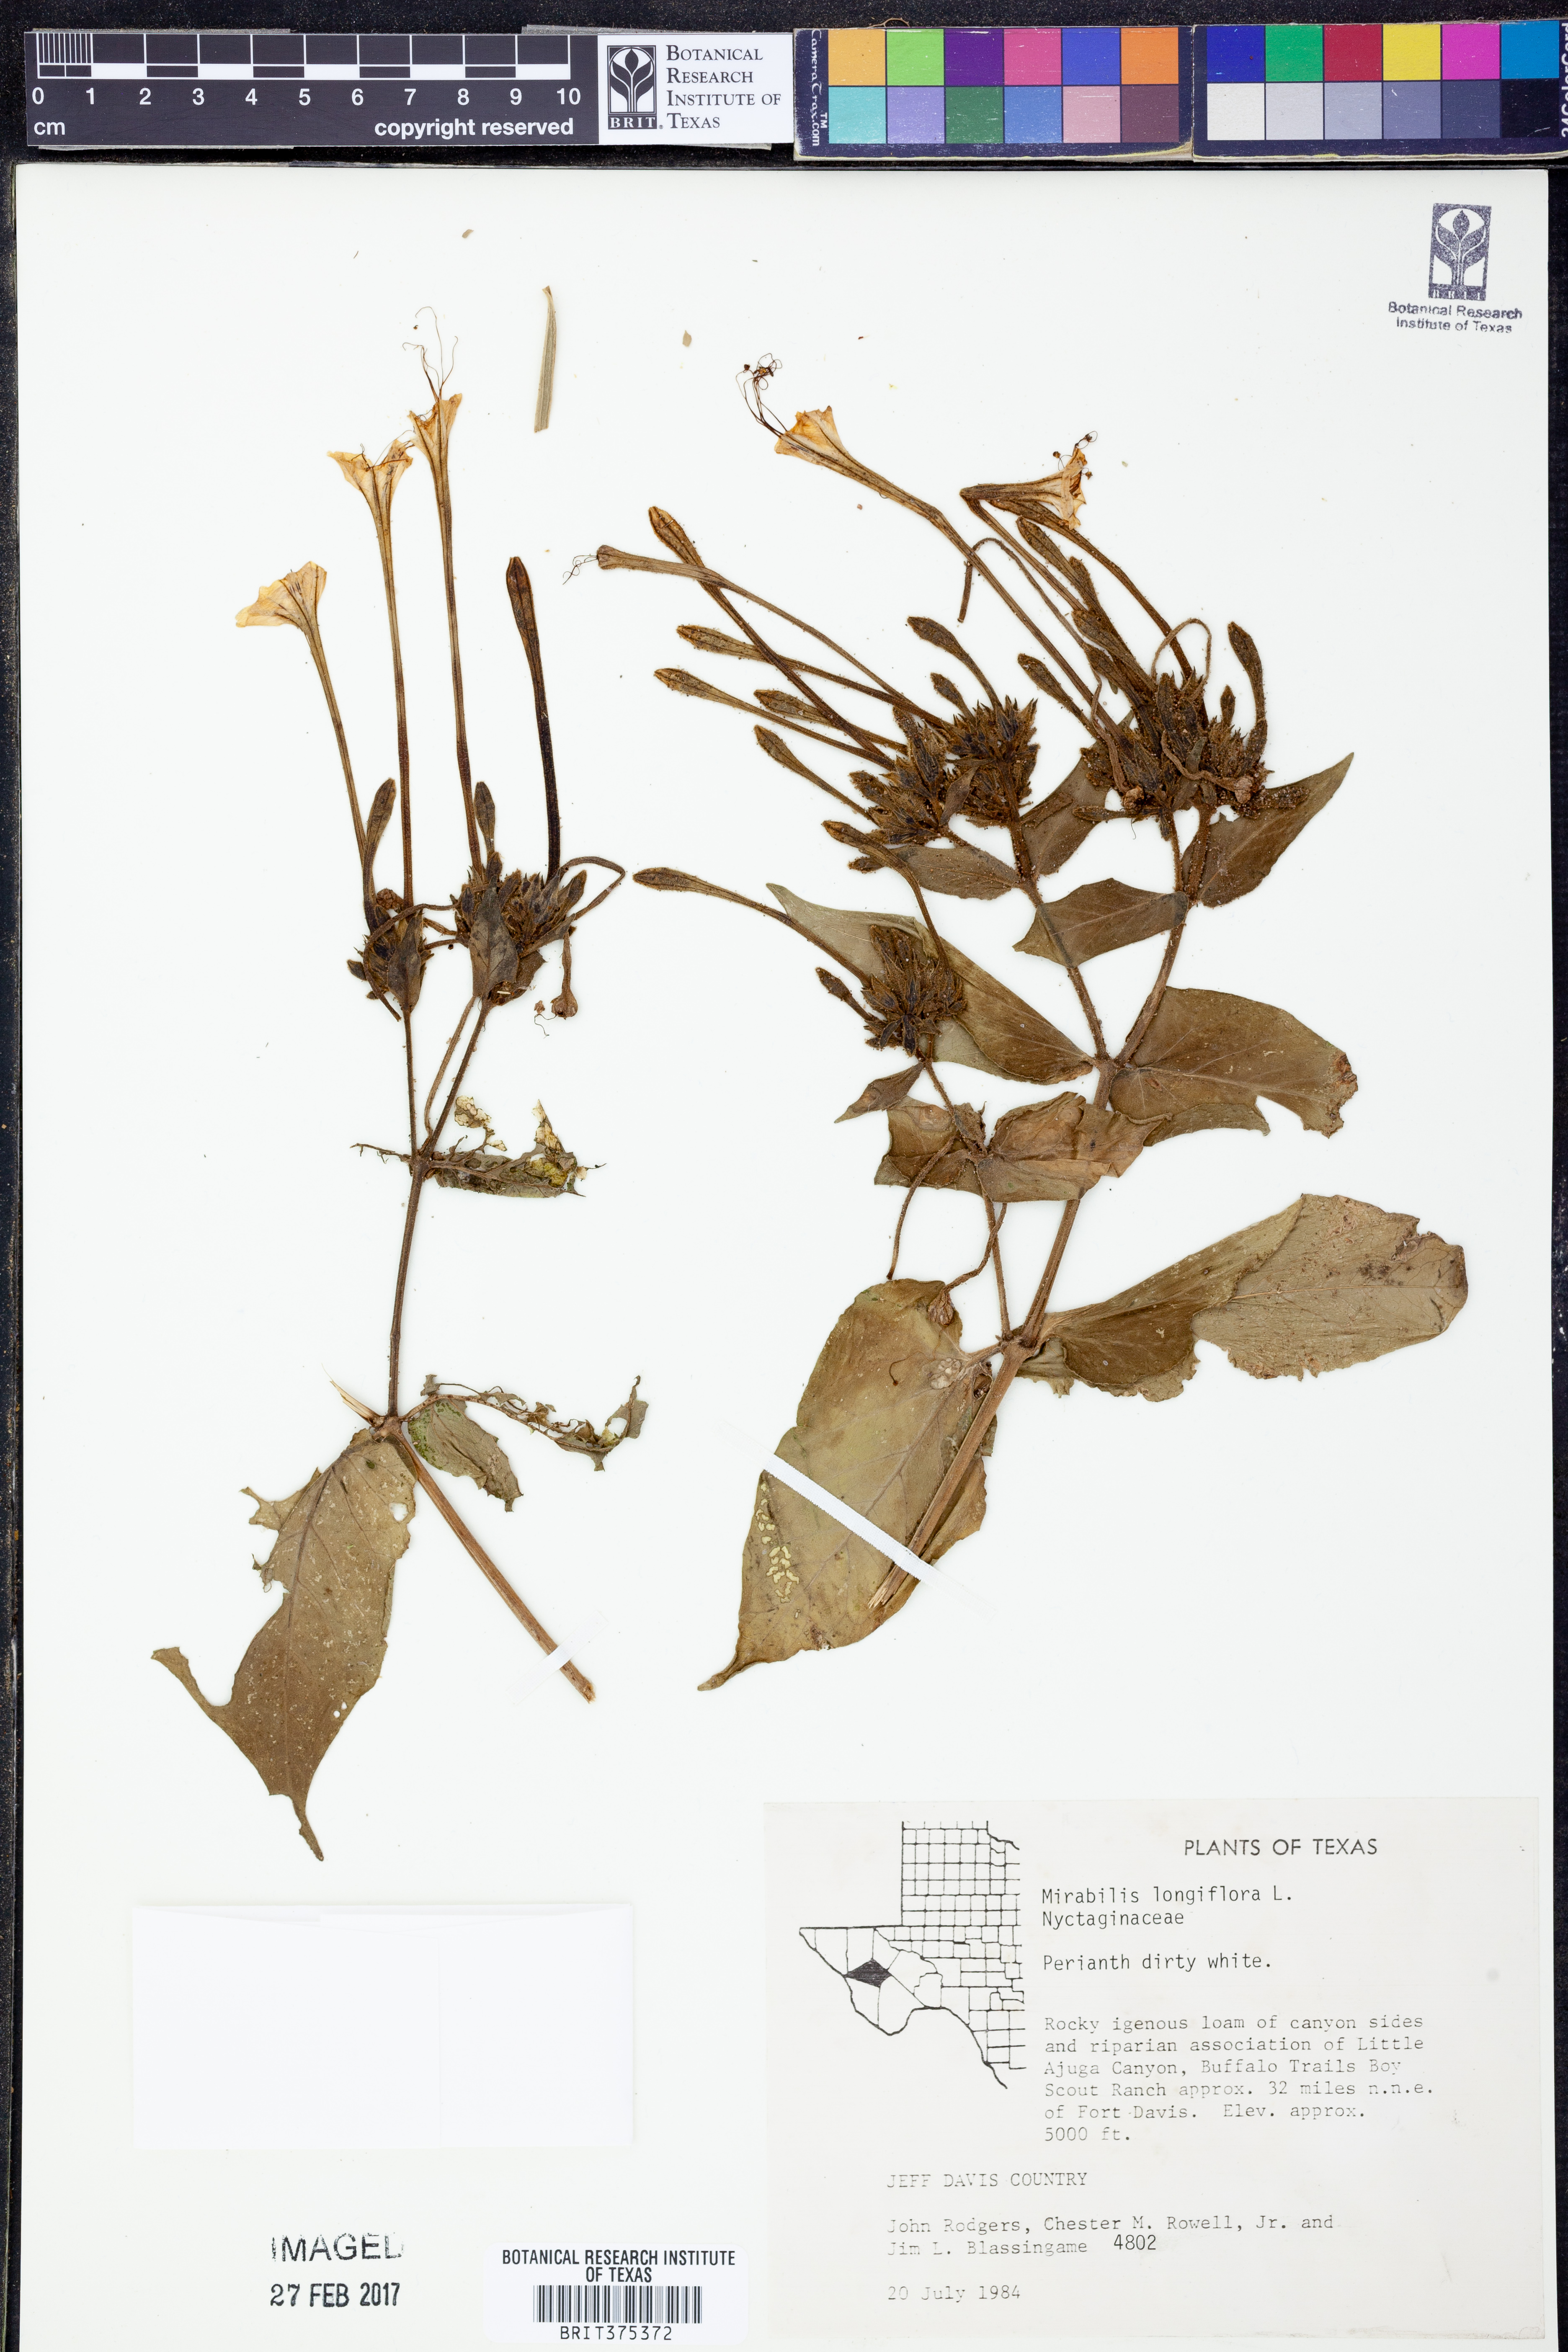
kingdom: Plantae
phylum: Tracheophyta
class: Magnoliopsida
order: Caryophyllales
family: Nyctaginaceae
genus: Mirabilis
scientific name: Mirabilis longiflora
